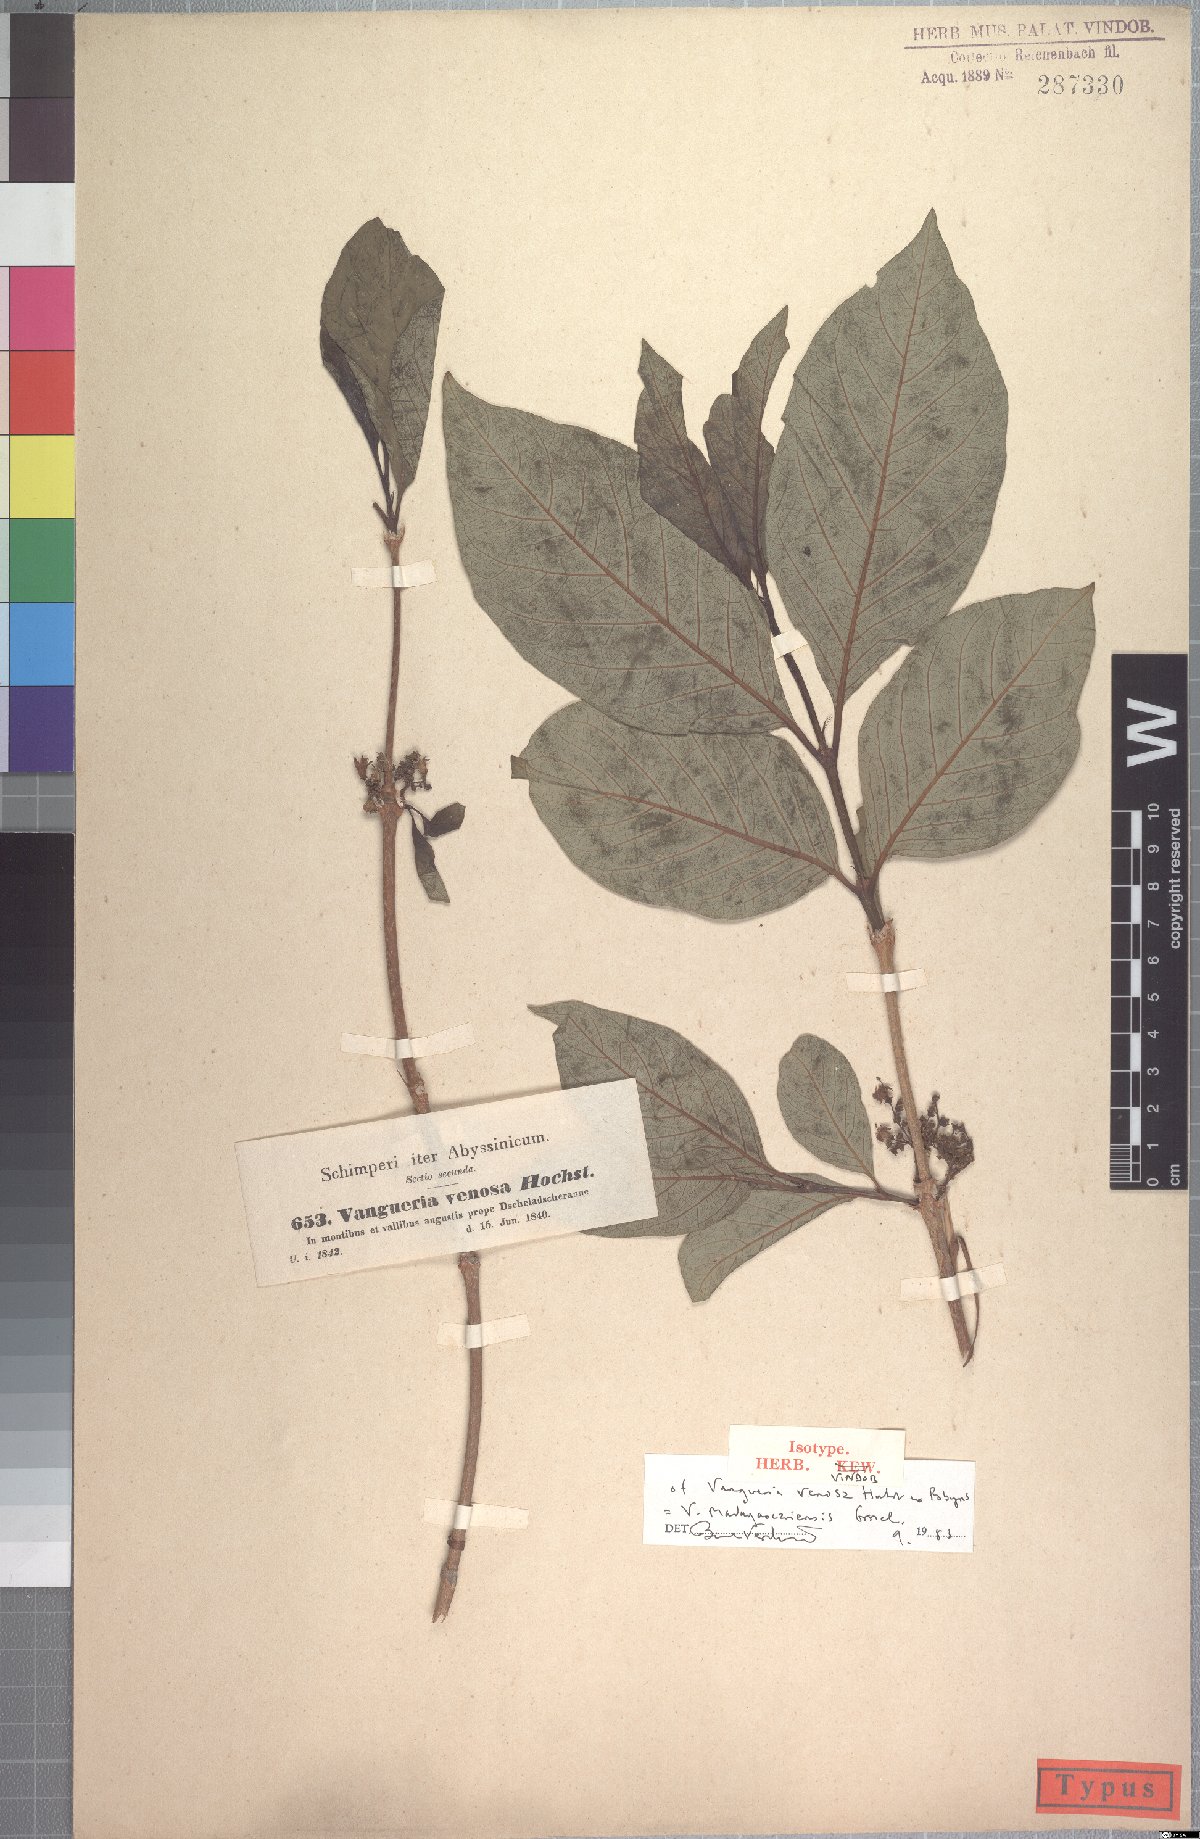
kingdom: Plantae
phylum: Tracheophyta
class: Magnoliopsida
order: Gentianales
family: Rubiaceae
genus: Vangueria
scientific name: Vangueria madagascariensis
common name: Smooth wild-medlar
